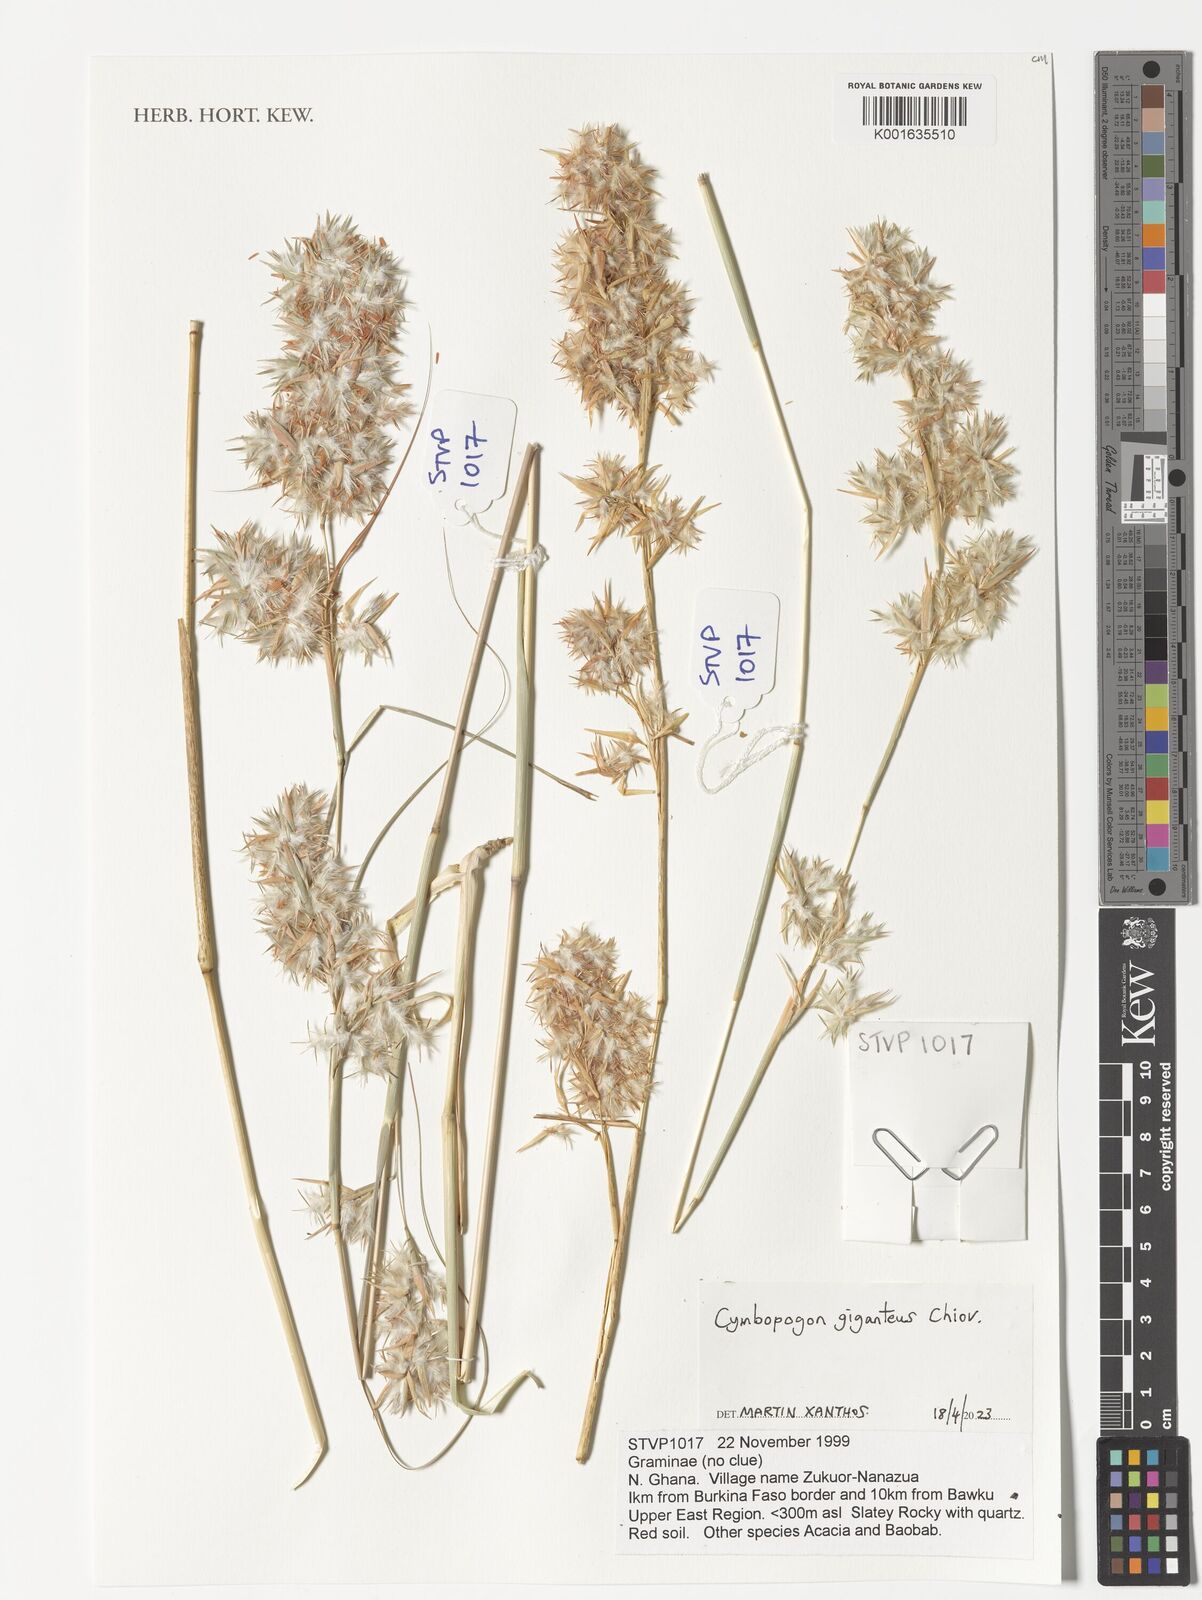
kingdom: Plantae
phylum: Tracheophyta
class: Liliopsida
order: Poales
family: Poaceae
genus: Cymbopogon
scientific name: Cymbopogon giganteus
